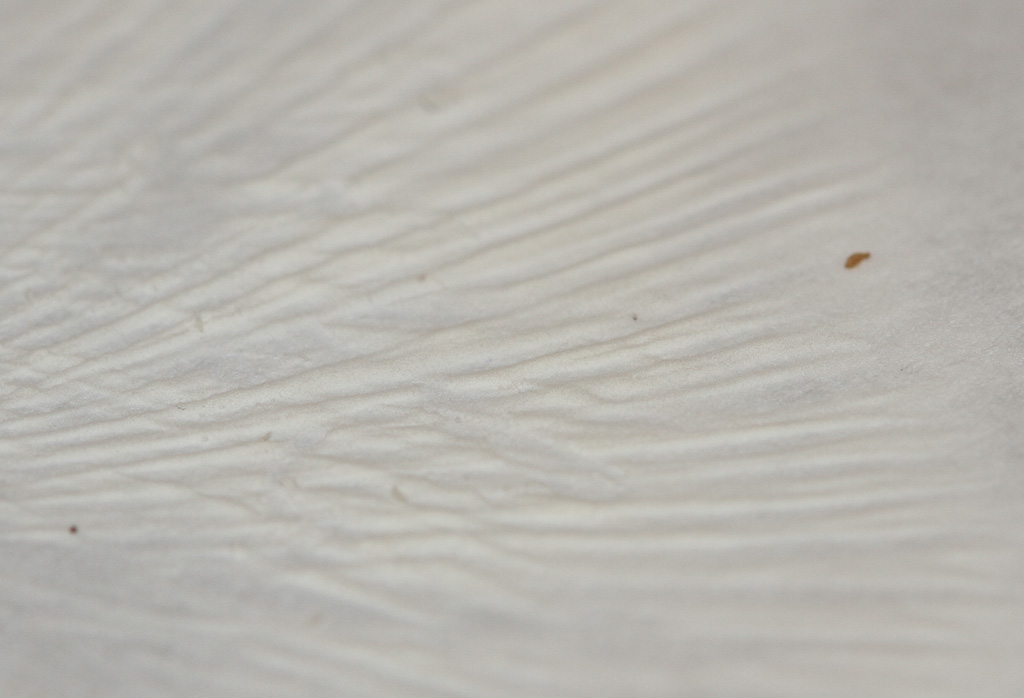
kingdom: Fungi
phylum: Basidiomycota
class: Agaricomycetes
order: Russulales
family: Russulaceae
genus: Russula
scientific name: Russula aquosa
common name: vand-skørhat
